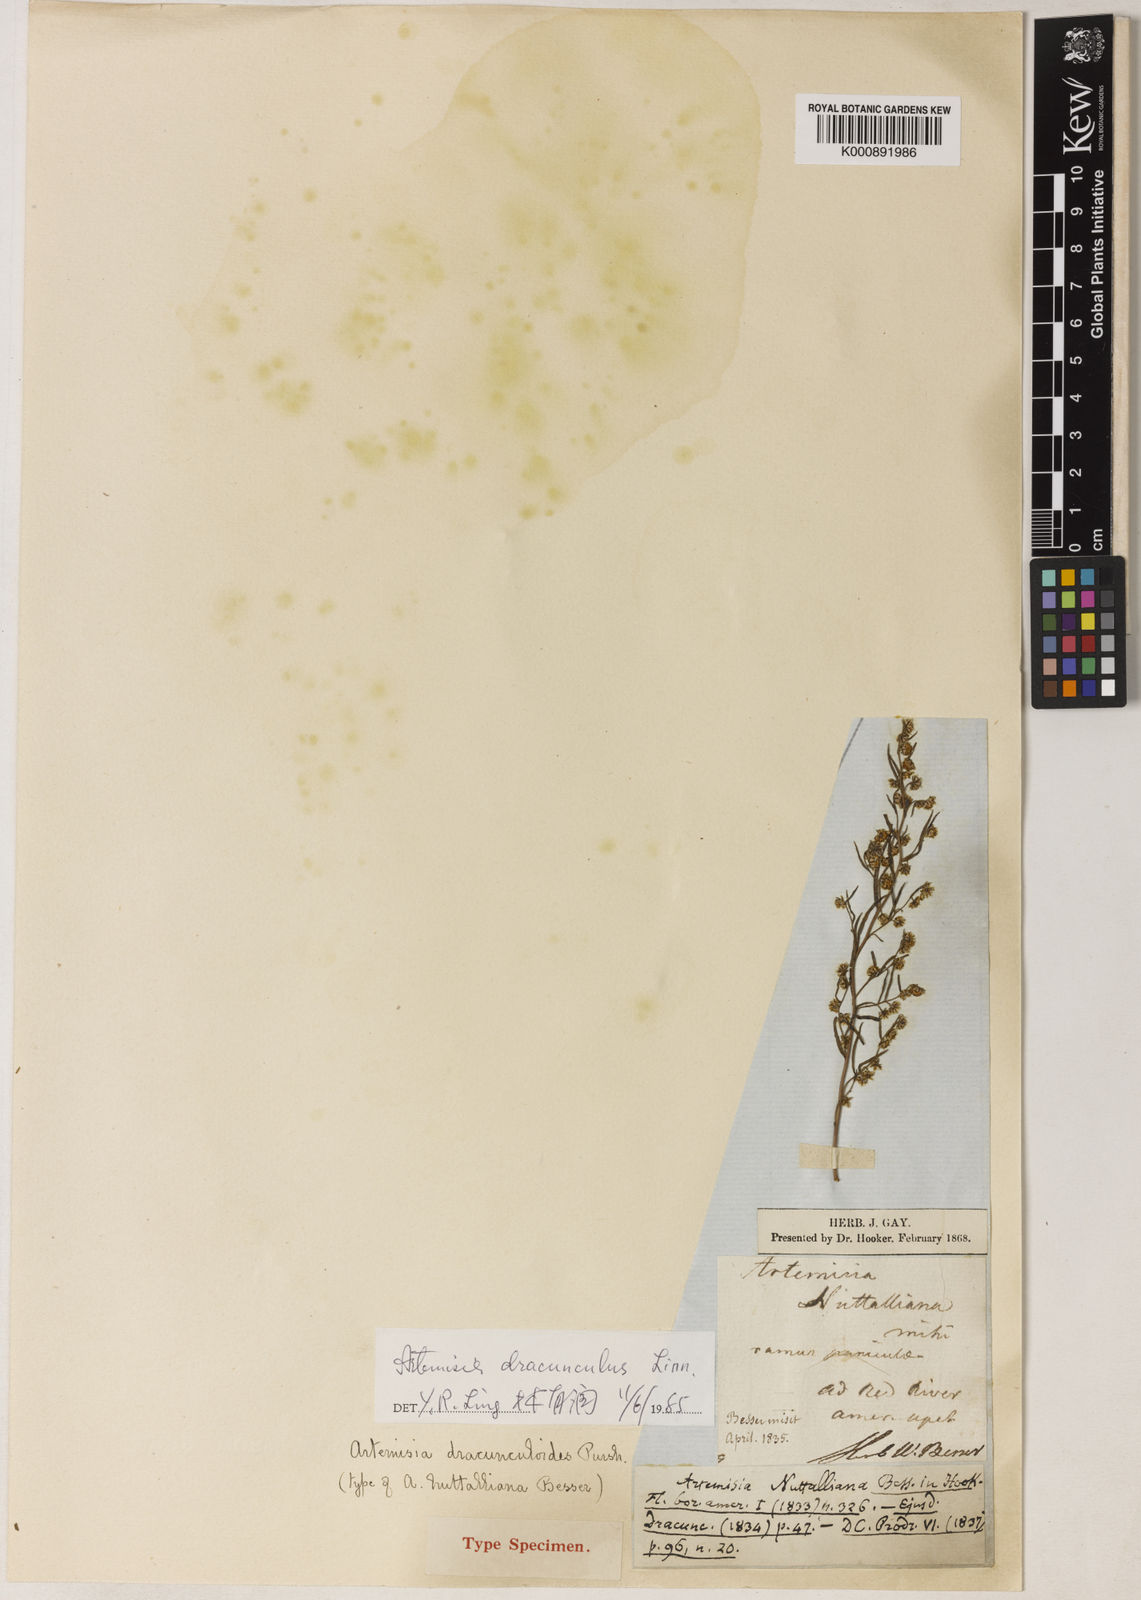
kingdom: Plantae
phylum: Tracheophyta
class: Magnoliopsida
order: Asterales
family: Asteraceae
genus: Artemisia
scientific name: Artemisia dracunculus
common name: Tarragon
